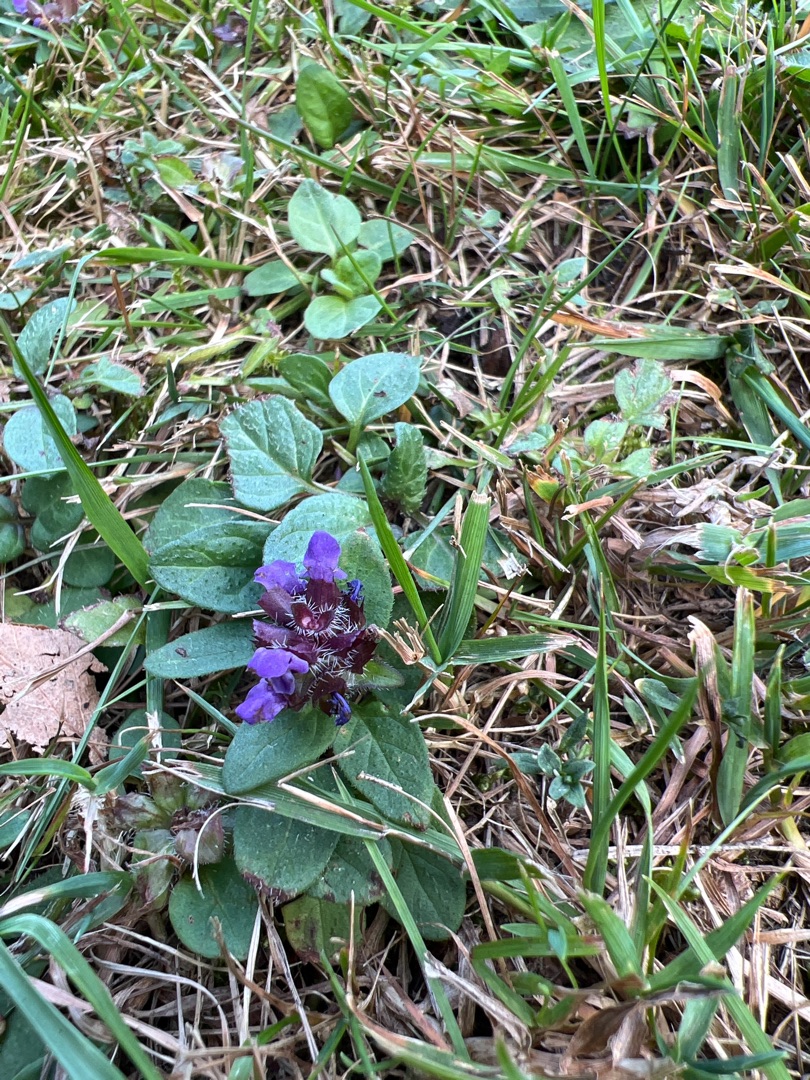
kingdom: Plantae
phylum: Tracheophyta
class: Magnoliopsida
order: Lamiales
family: Lamiaceae
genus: Prunella
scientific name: Prunella vulgaris
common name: Almindelig brunelle
